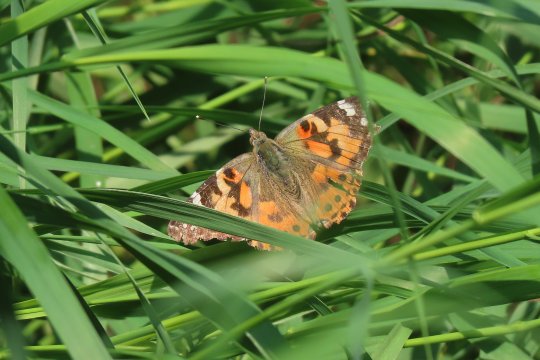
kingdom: Animalia
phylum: Arthropoda
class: Insecta
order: Lepidoptera
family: Nymphalidae
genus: Vanessa
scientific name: Vanessa cardui
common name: Painted Lady
